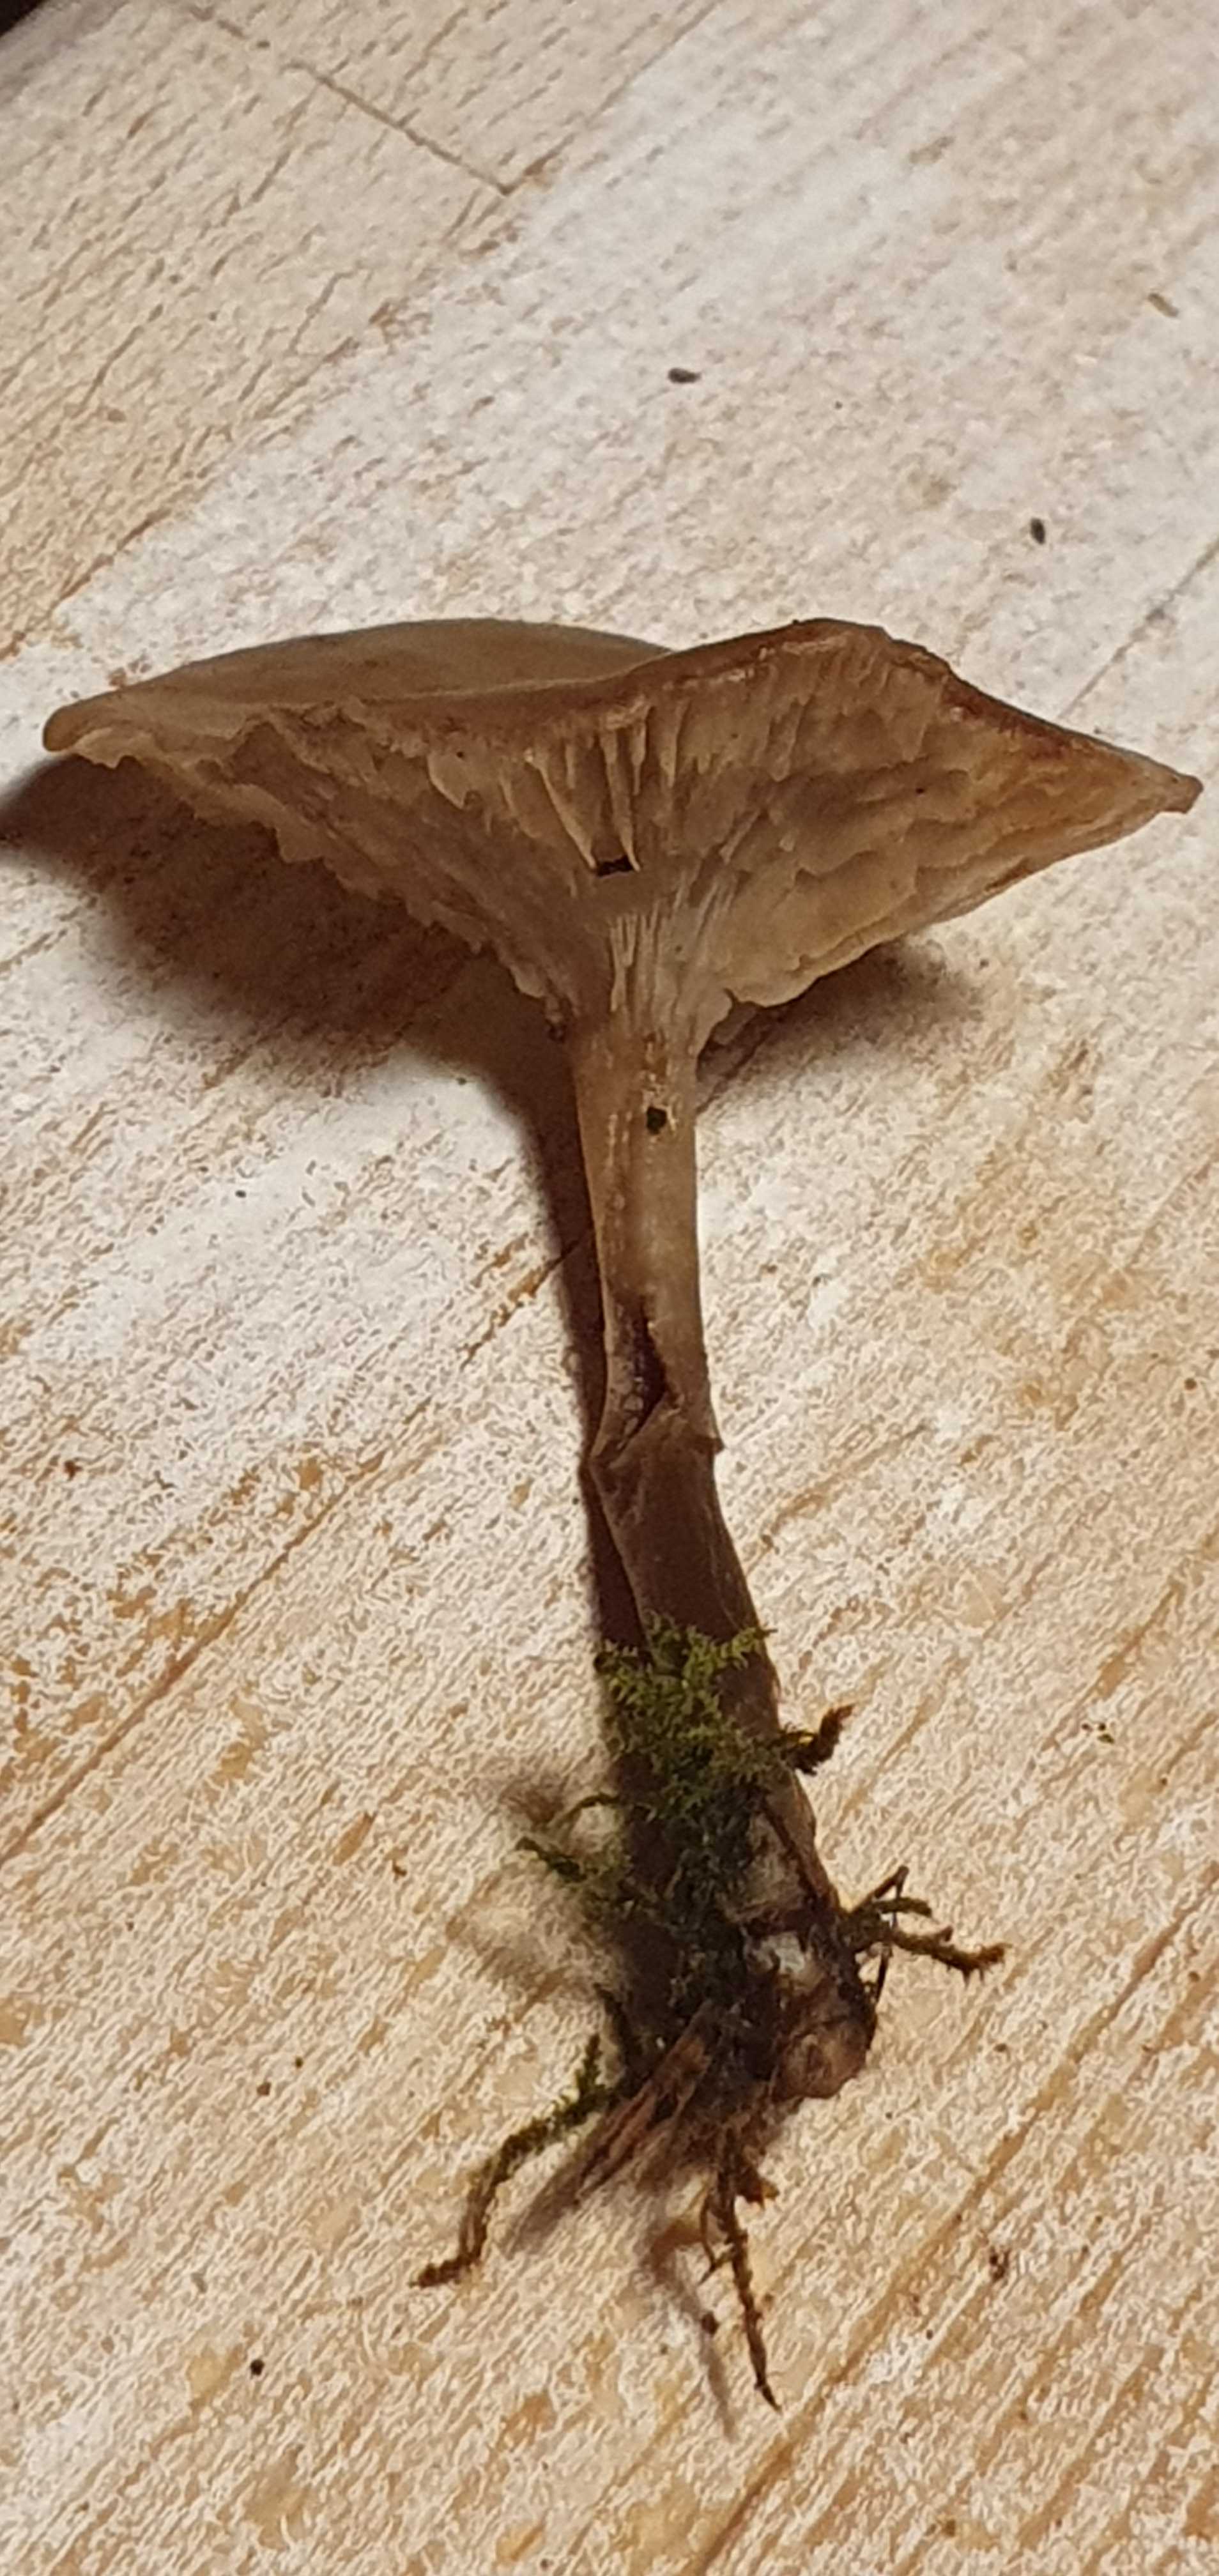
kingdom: Fungi
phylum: Basidiomycota
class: Agaricomycetes
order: Agaricales
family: Tricholomataceae
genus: Clitocybe
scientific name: Clitocybe metachroa
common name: grå tragthat
